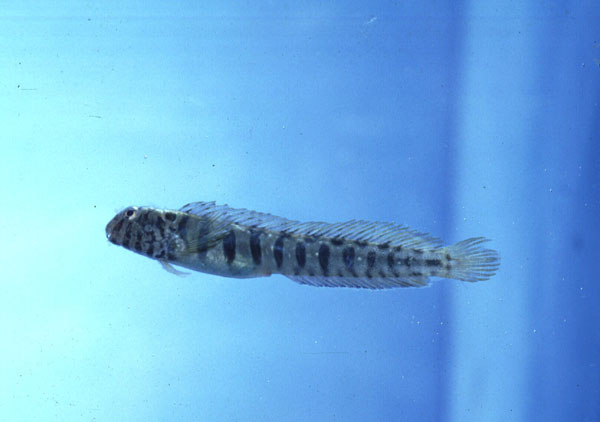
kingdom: Animalia
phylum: Chordata
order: Perciformes
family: Blenniidae
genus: Omobranchus
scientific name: Omobranchus banditus
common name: Bandit blenny
